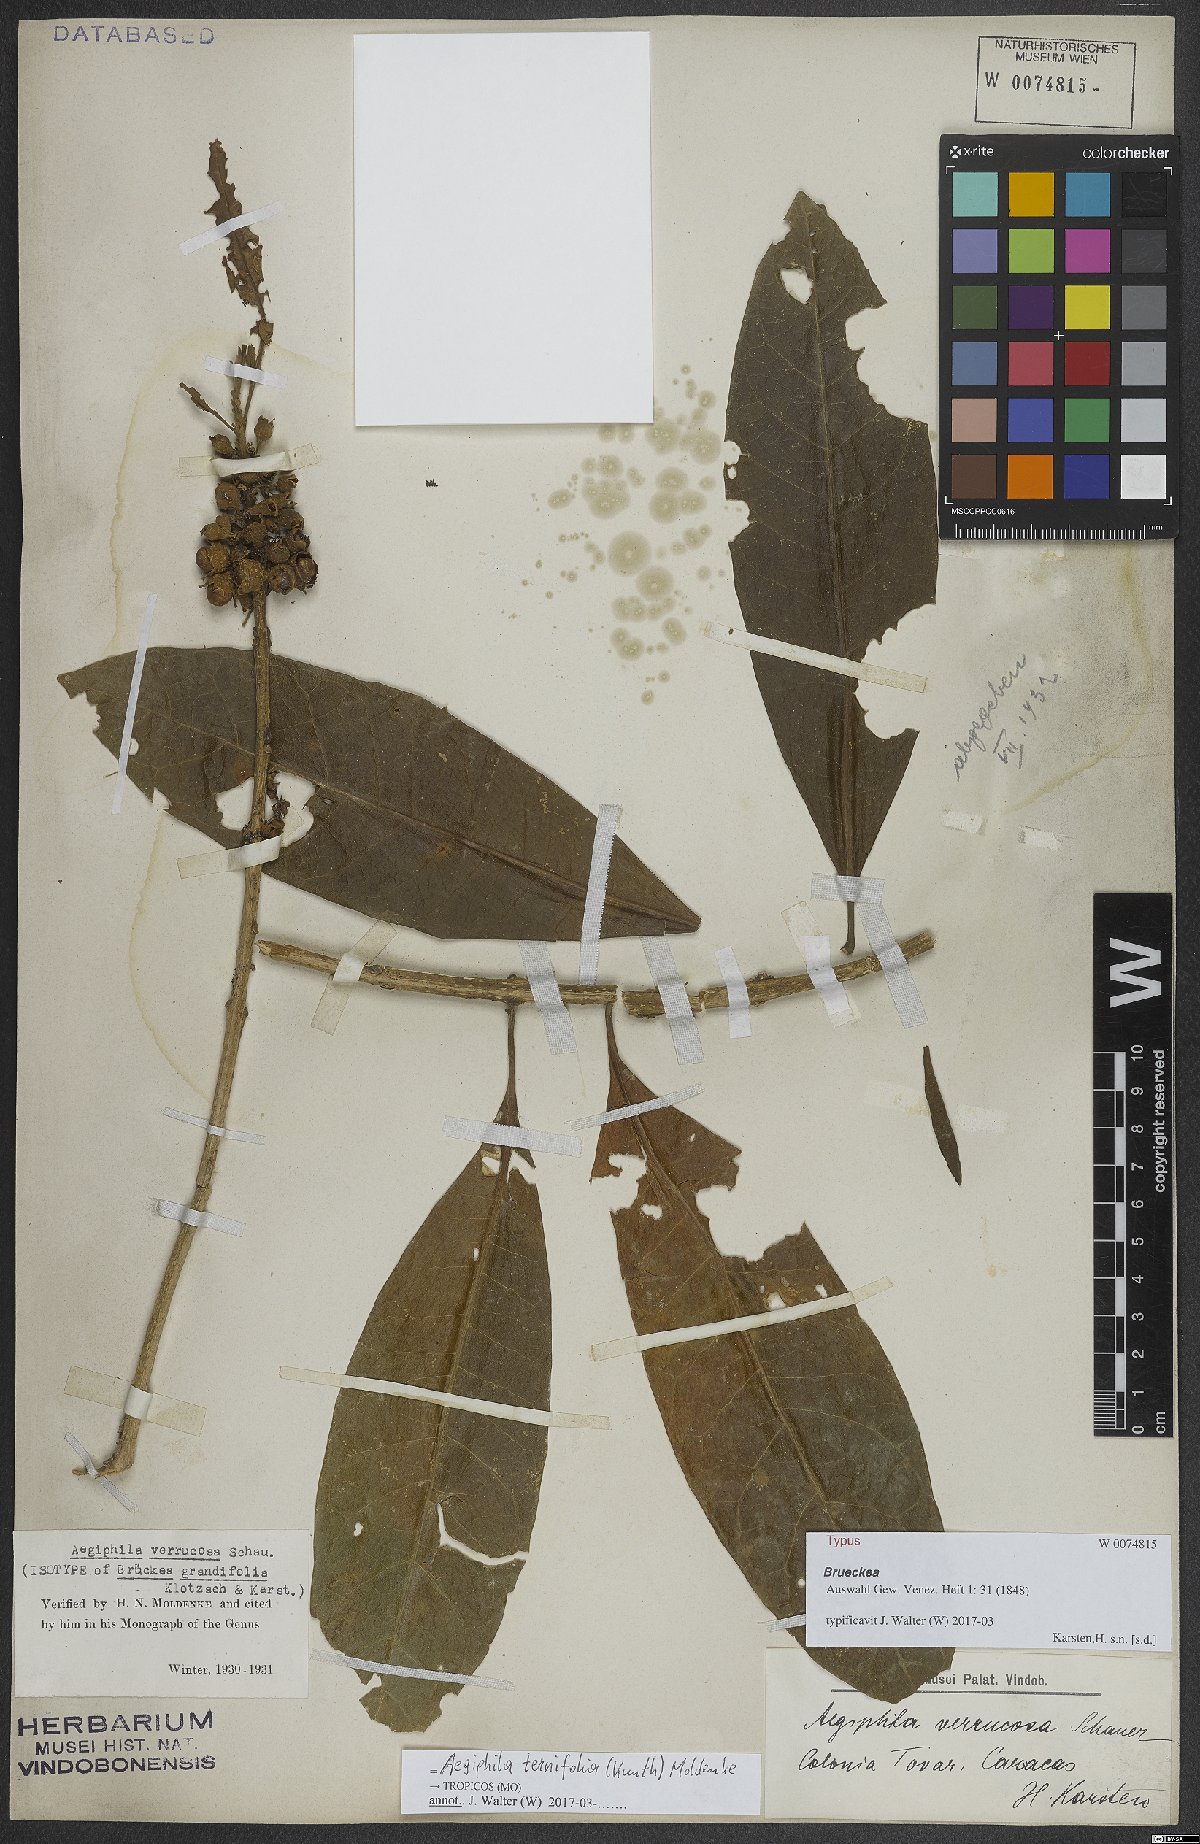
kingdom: Plantae
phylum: Tracheophyta
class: Magnoliopsida
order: Lamiales
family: Lamiaceae
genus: Aegiphila
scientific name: Aegiphila ternifolia
